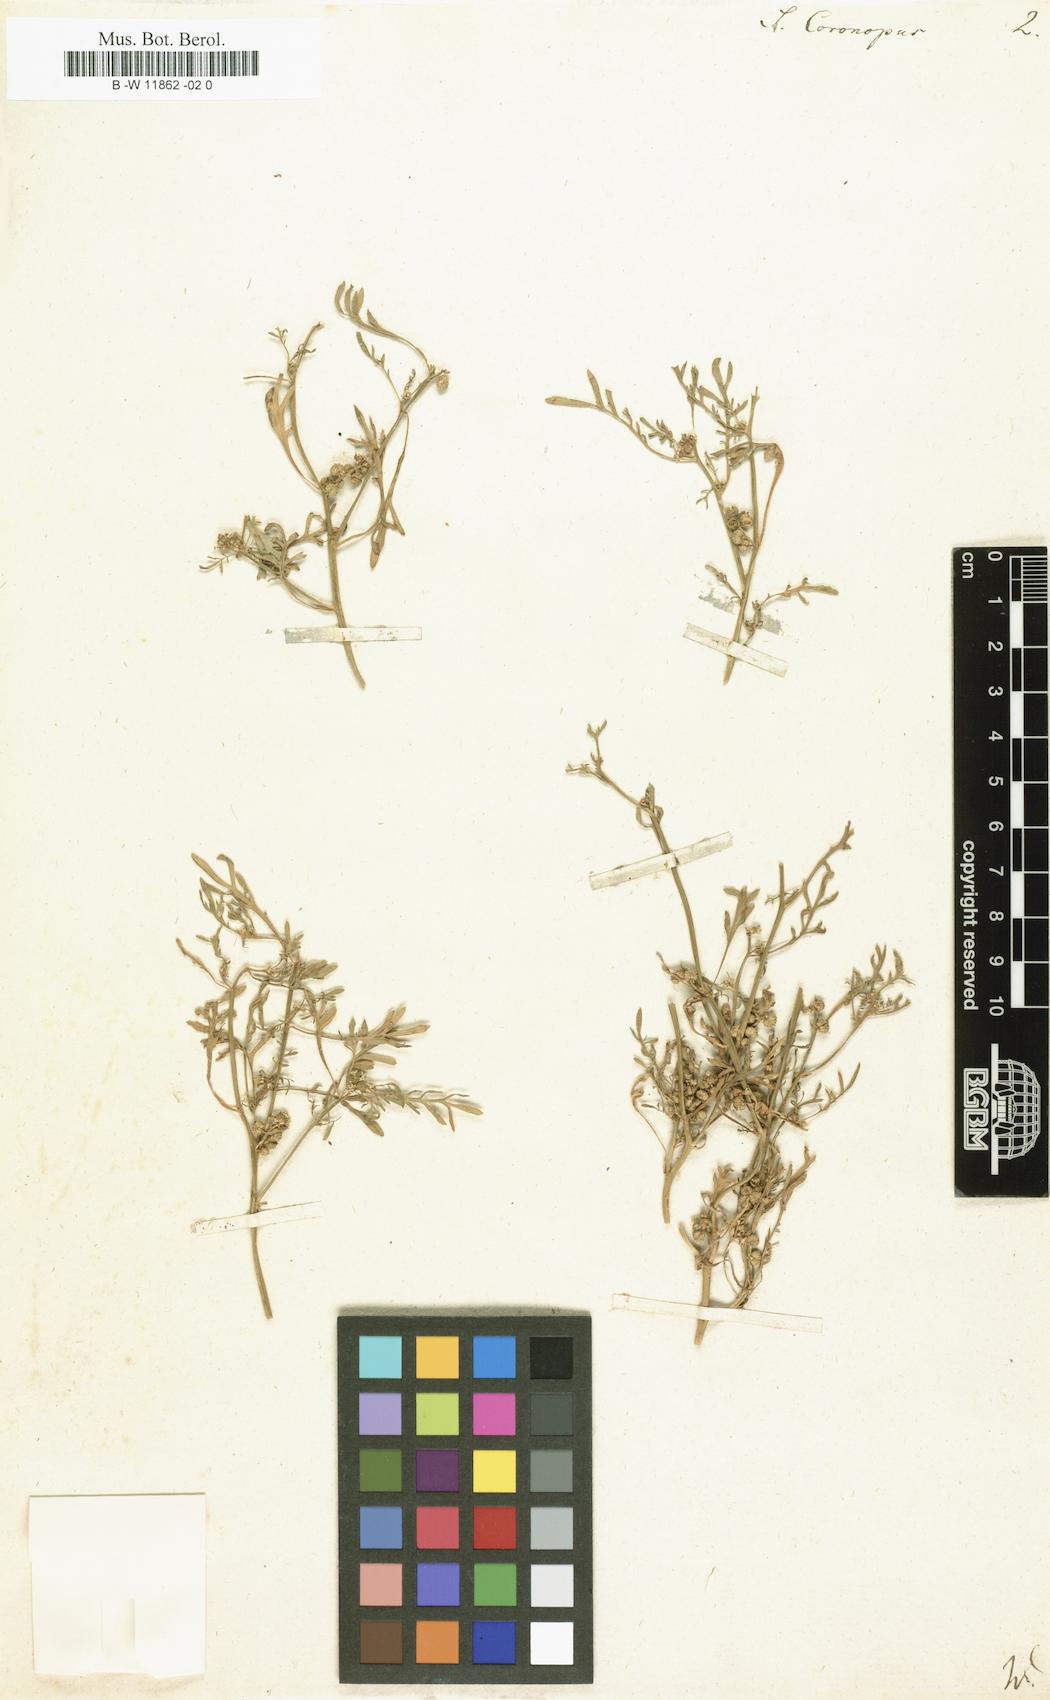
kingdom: Plantae
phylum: Tracheophyta
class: Magnoliopsida
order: Brassicales
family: Brassicaceae
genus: Lepidium
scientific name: Lepidium
